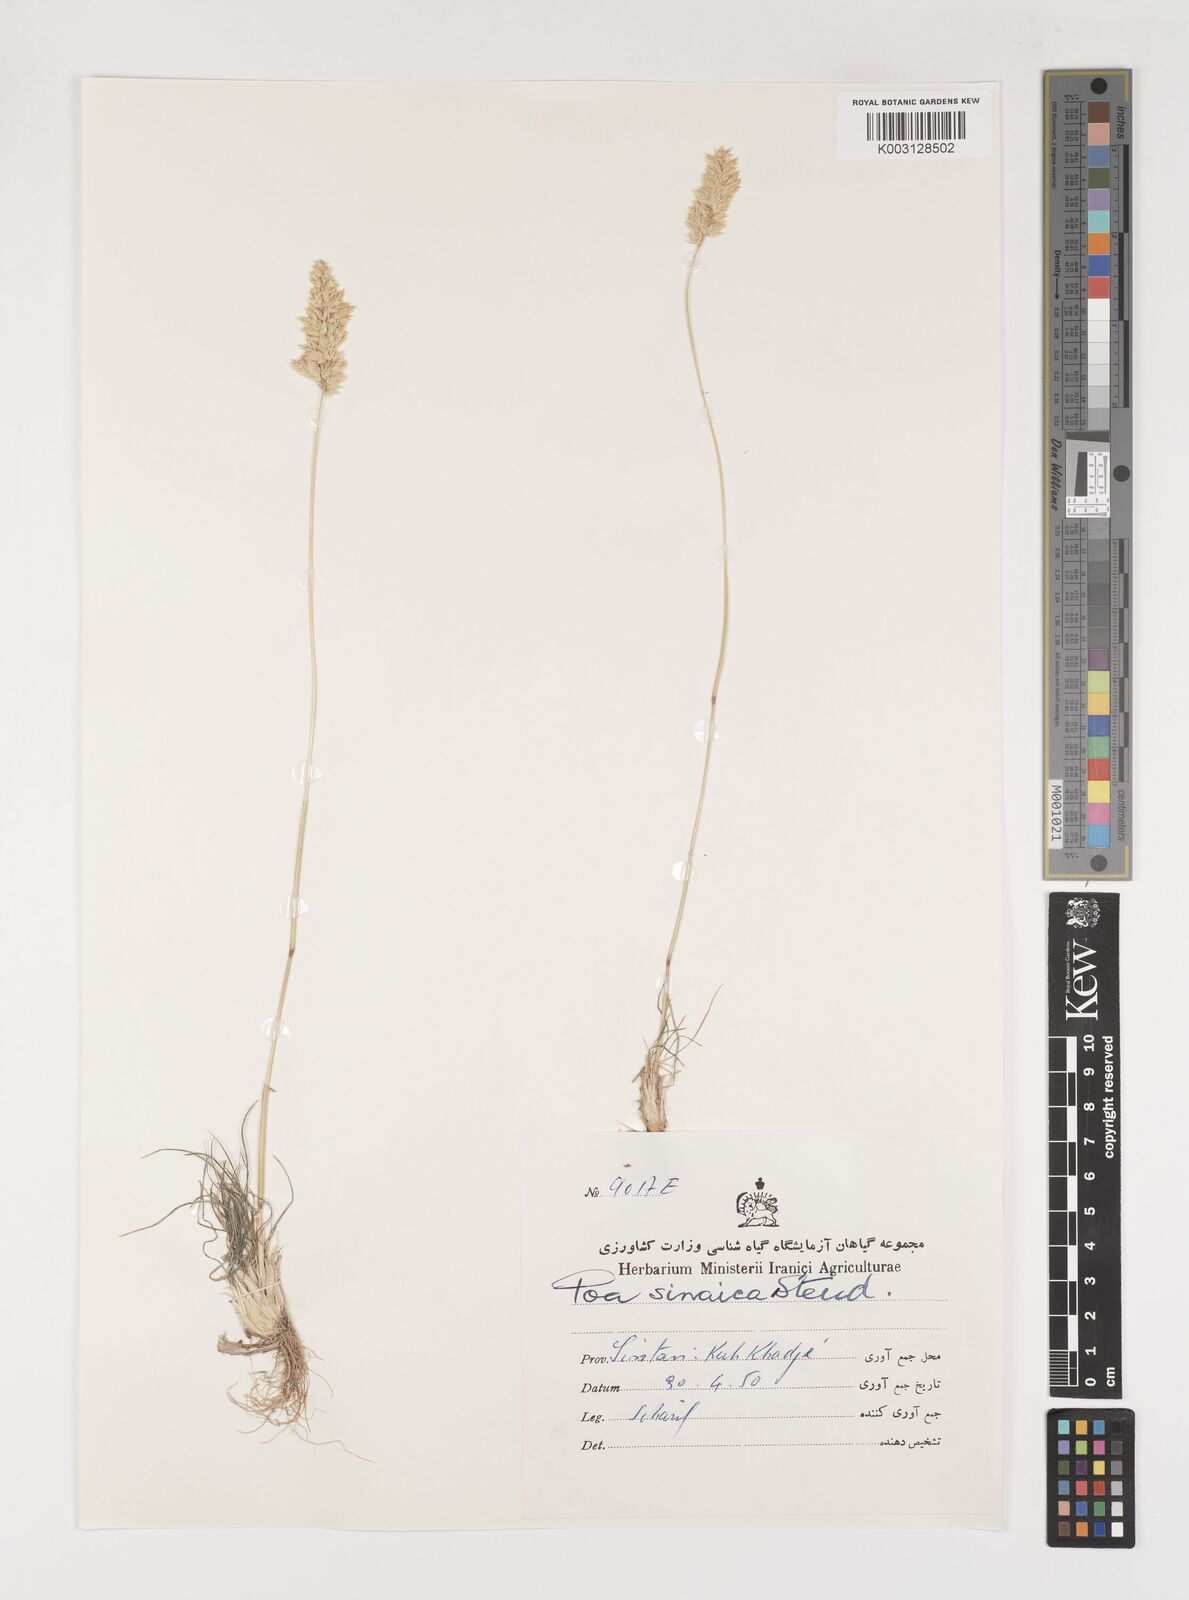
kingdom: Plantae
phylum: Tracheophyta
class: Liliopsida
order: Poales
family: Poaceae
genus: Poa
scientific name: Poa sinaica
